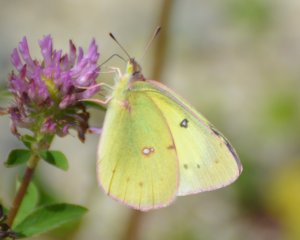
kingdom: Animalia
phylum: Arthropoda
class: Insecta
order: Lepidoptera
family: Pieridae
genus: Colias
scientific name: Colias philodice
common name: Clouded Sulphur
